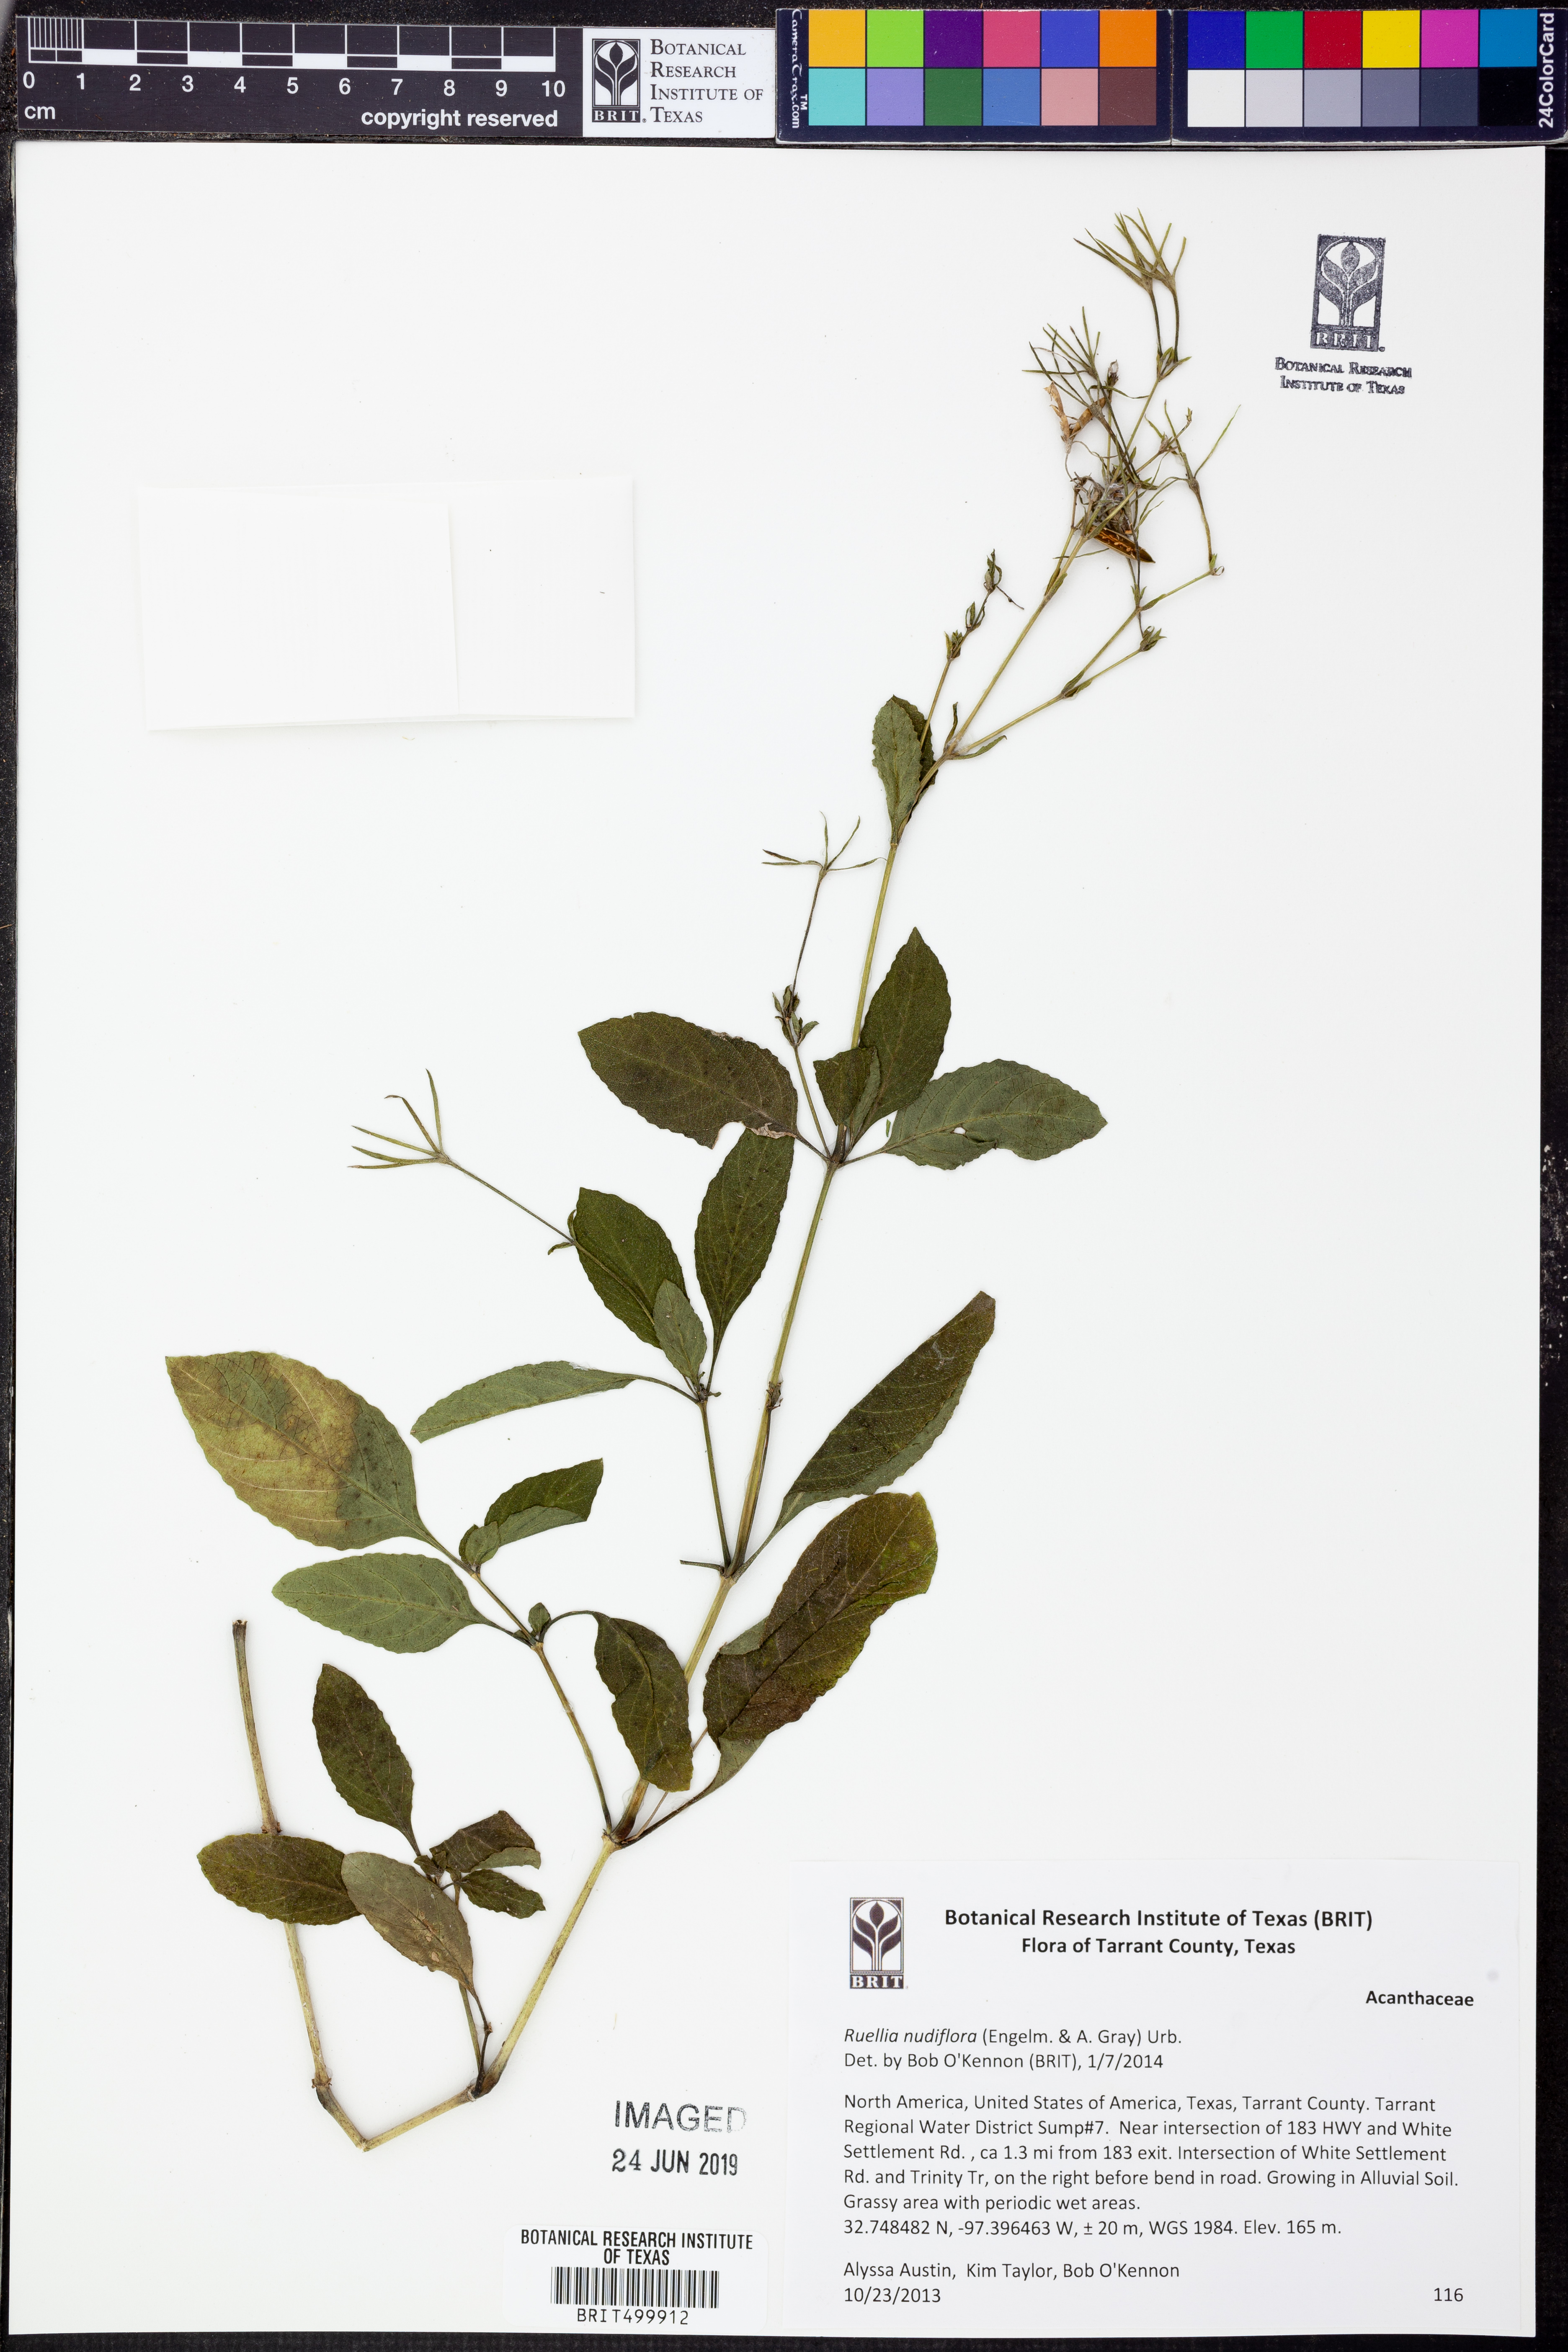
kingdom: Plantae
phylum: Tracheophyta
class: Magnoliopsida
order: Lamiales
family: Acanthaceae
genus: Ruellia
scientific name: Ruellia ciliatiflora
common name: Hairyflower wild petunia
